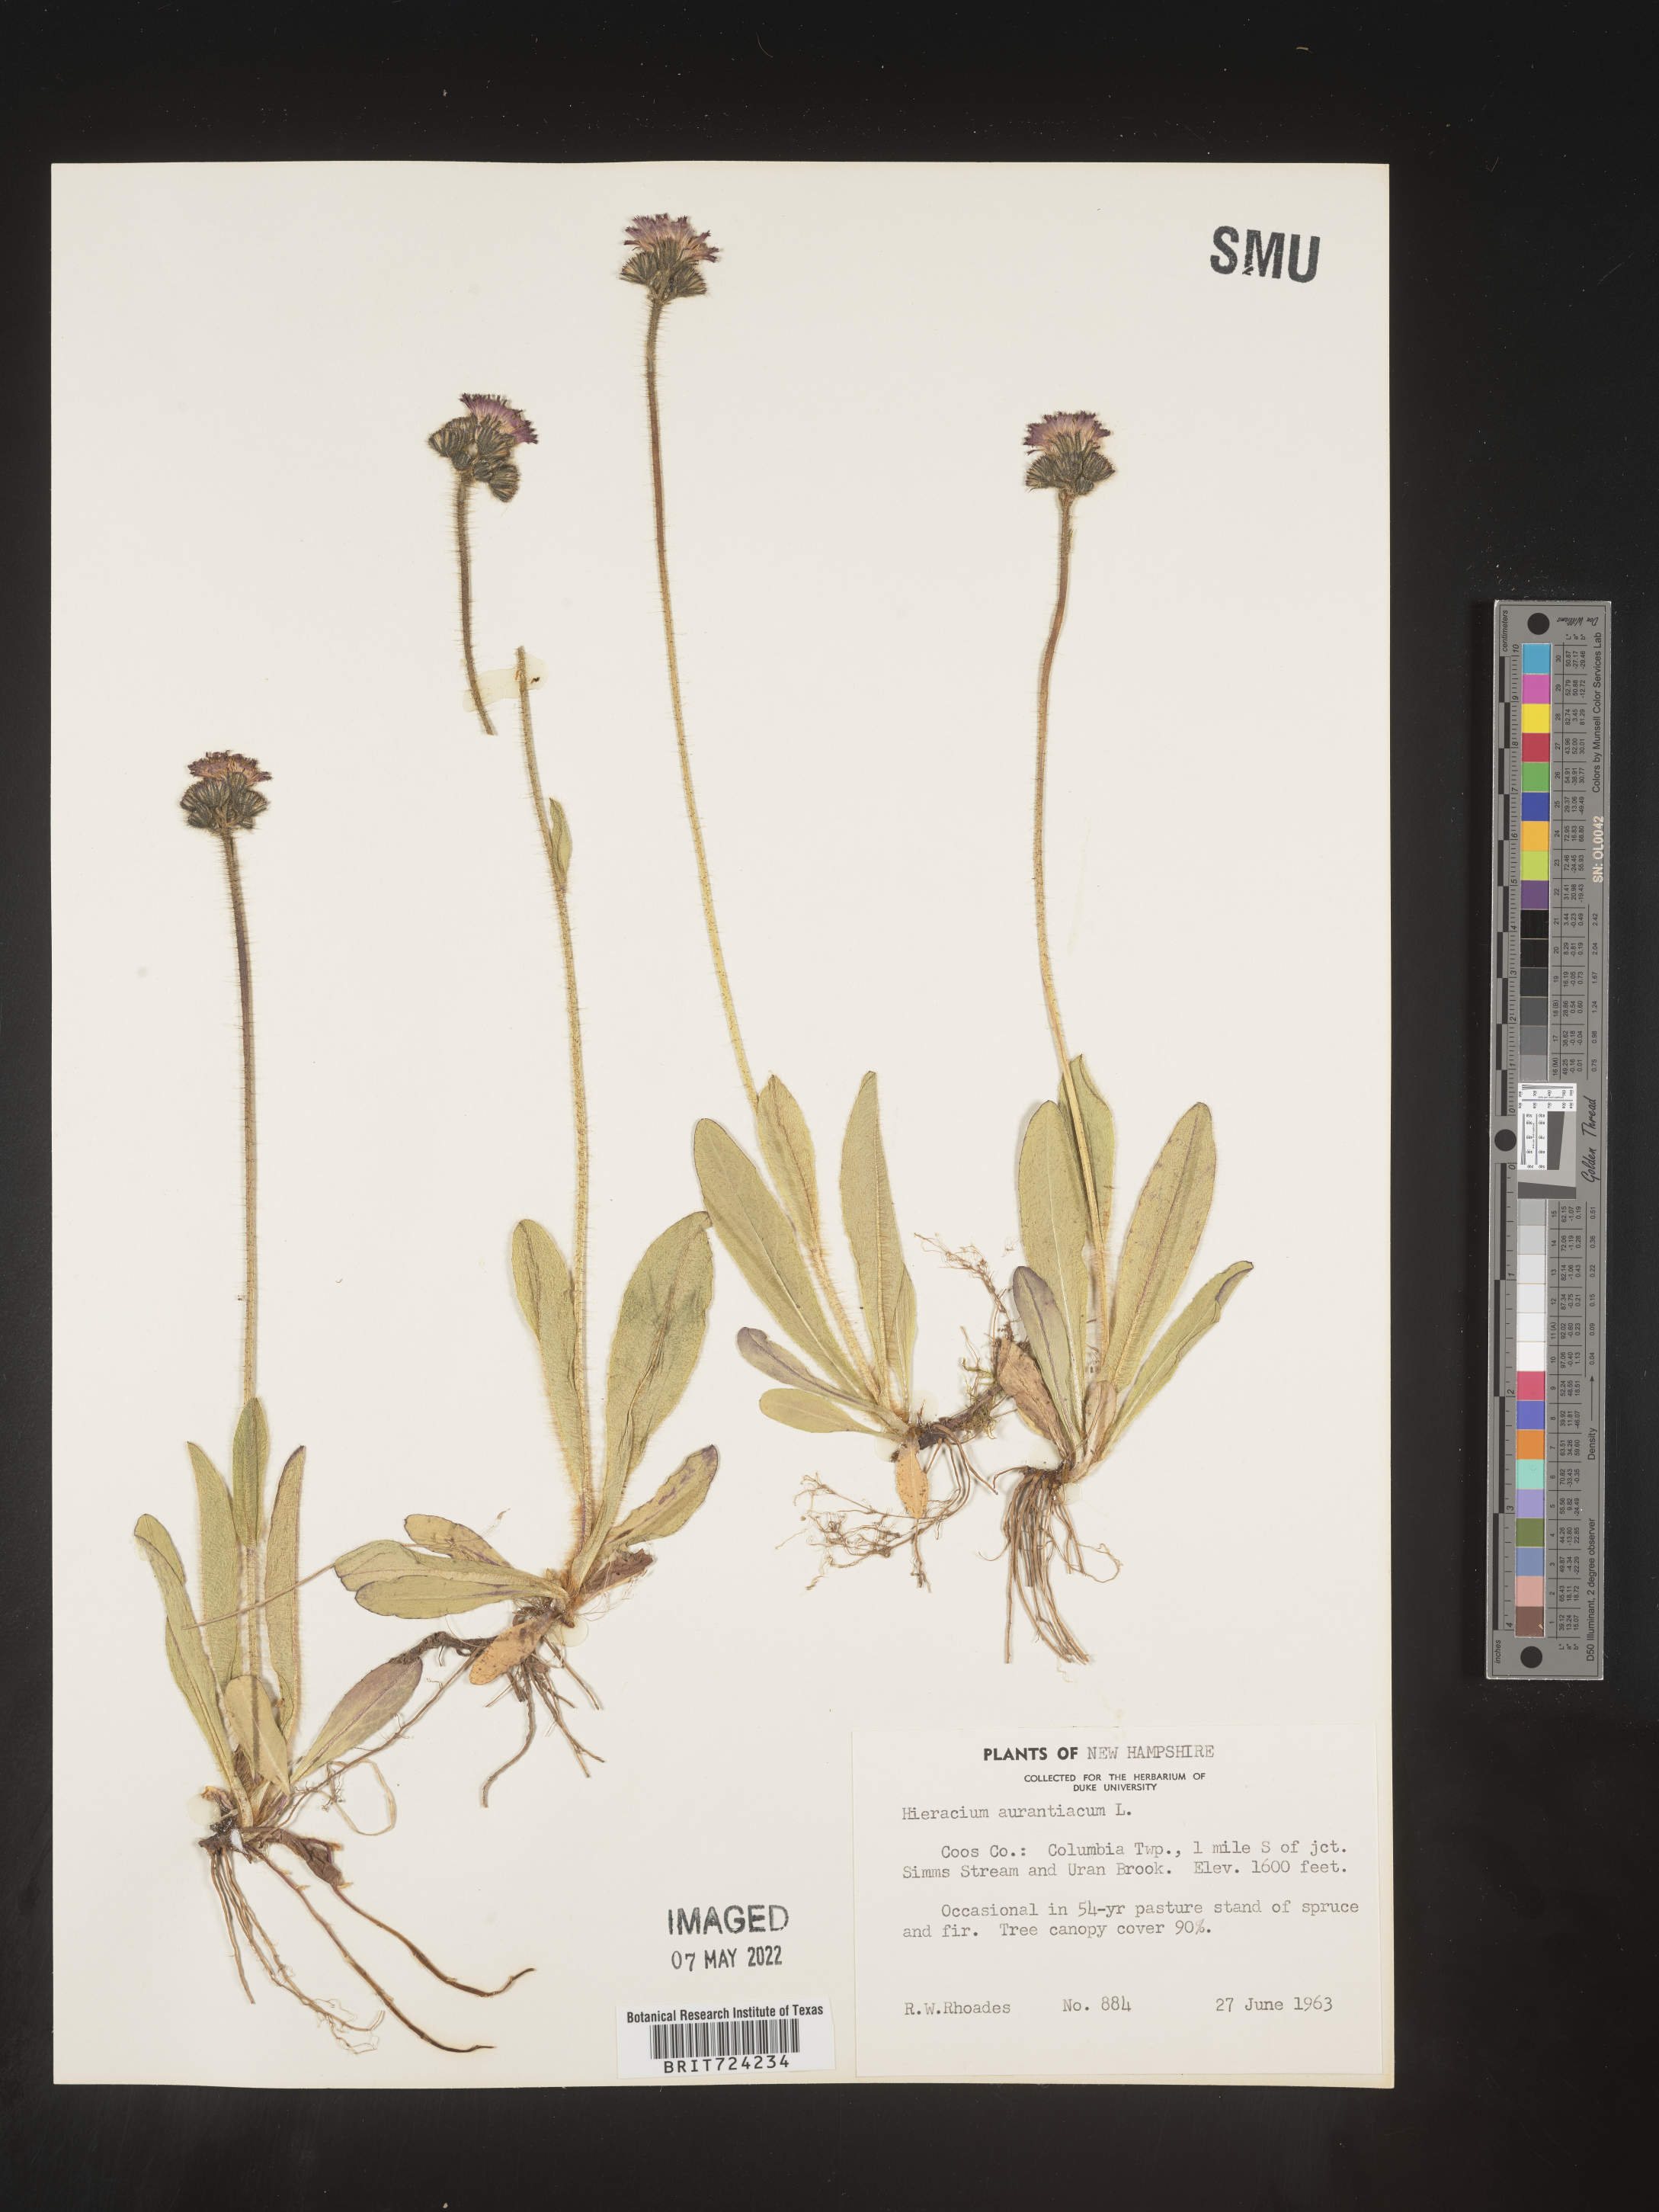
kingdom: Plantae
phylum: Tracheophyta
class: Magnoliopsida
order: Asterales
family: Asteraceae
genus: Pilosella
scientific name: Pilosella aurantiaca
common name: Fox-and-cubs
